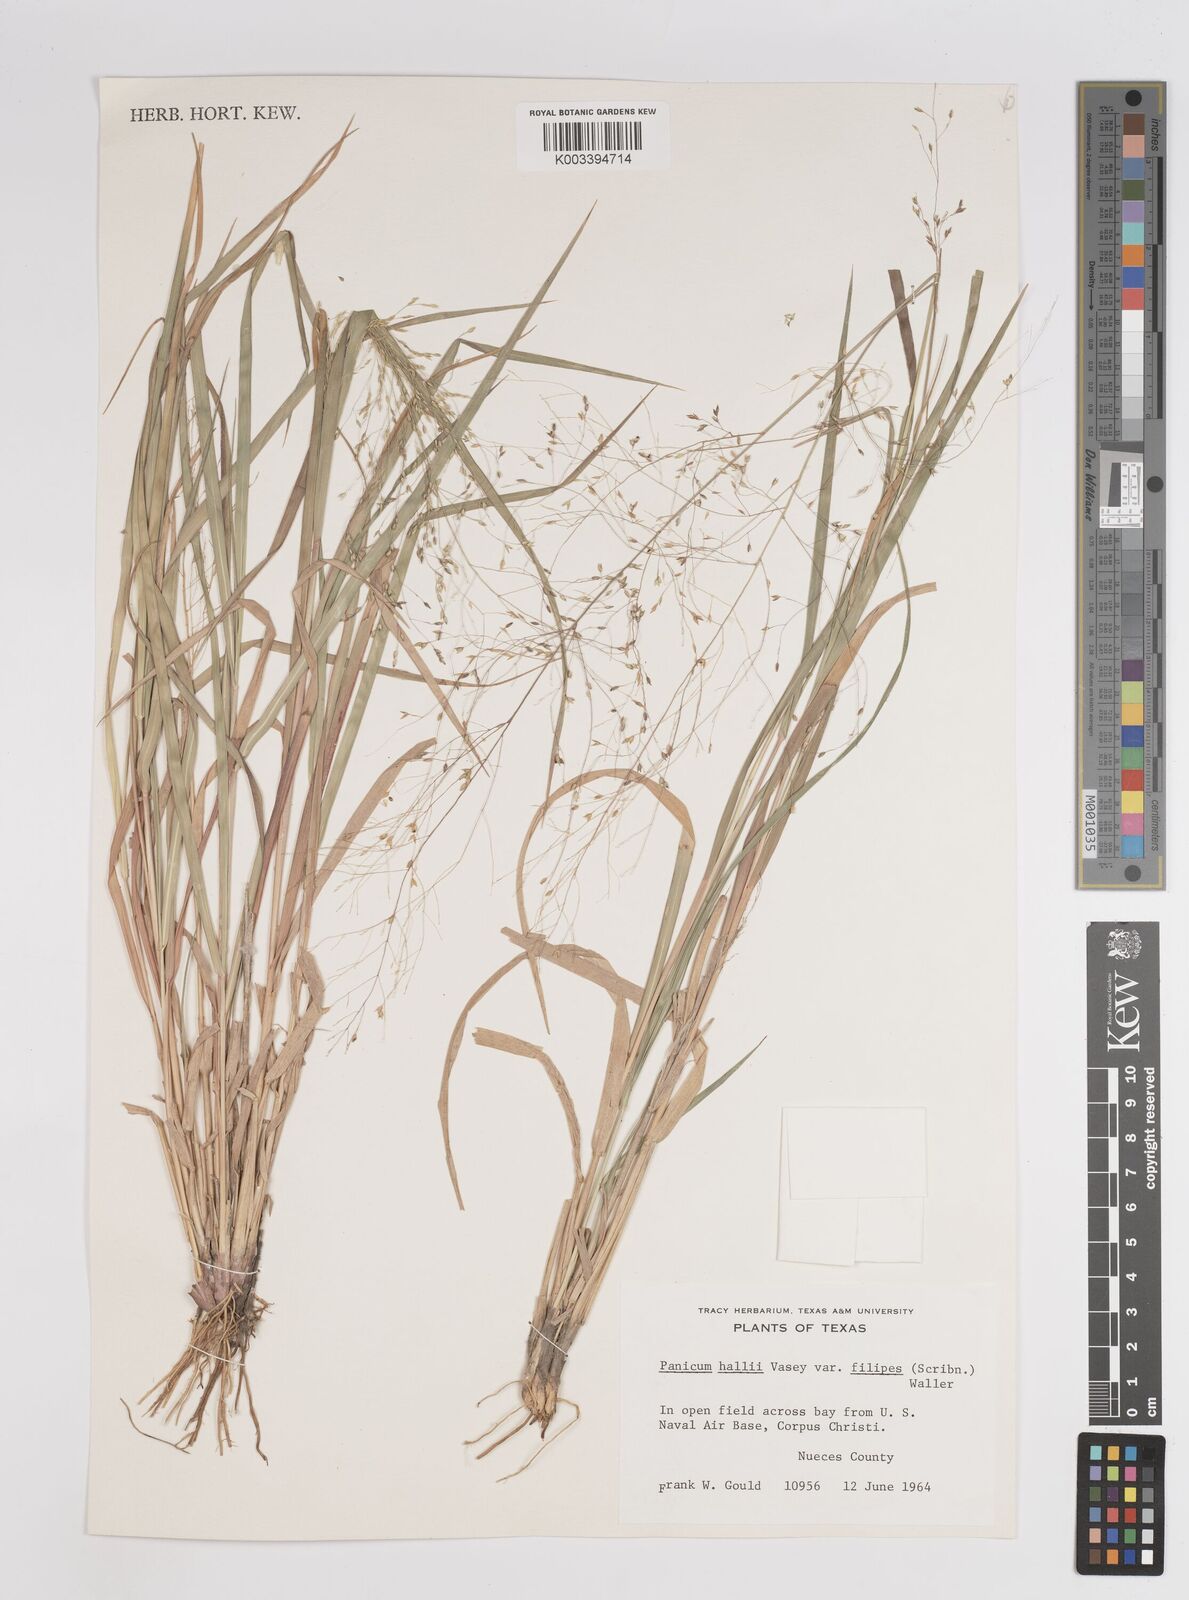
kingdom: Plantae
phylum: Tracheophyta
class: Liliopsida
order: Poales
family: Poaceae
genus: Panicum
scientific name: Panicum hallii
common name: Hall's witchgrass
